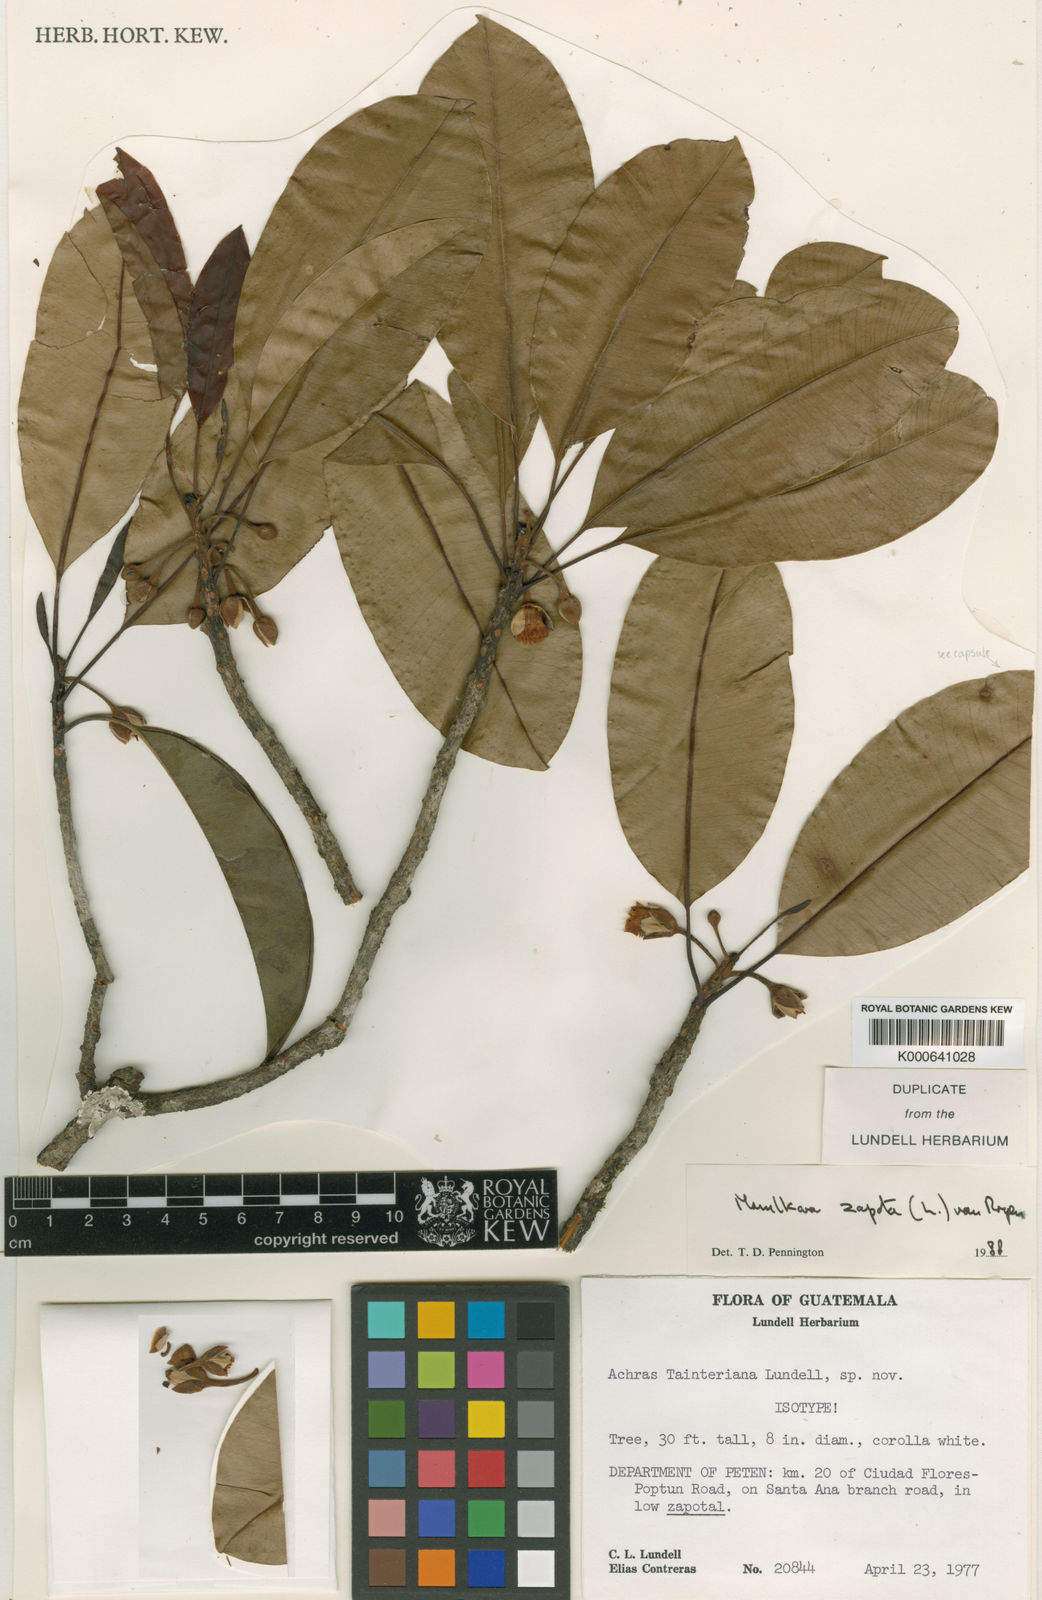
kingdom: Plantae
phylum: Tracheophyta
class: Magnoliopsida
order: Ericales
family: Sapotaceae
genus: Manilkara
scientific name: Manilkara zapota
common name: Sapodilla
